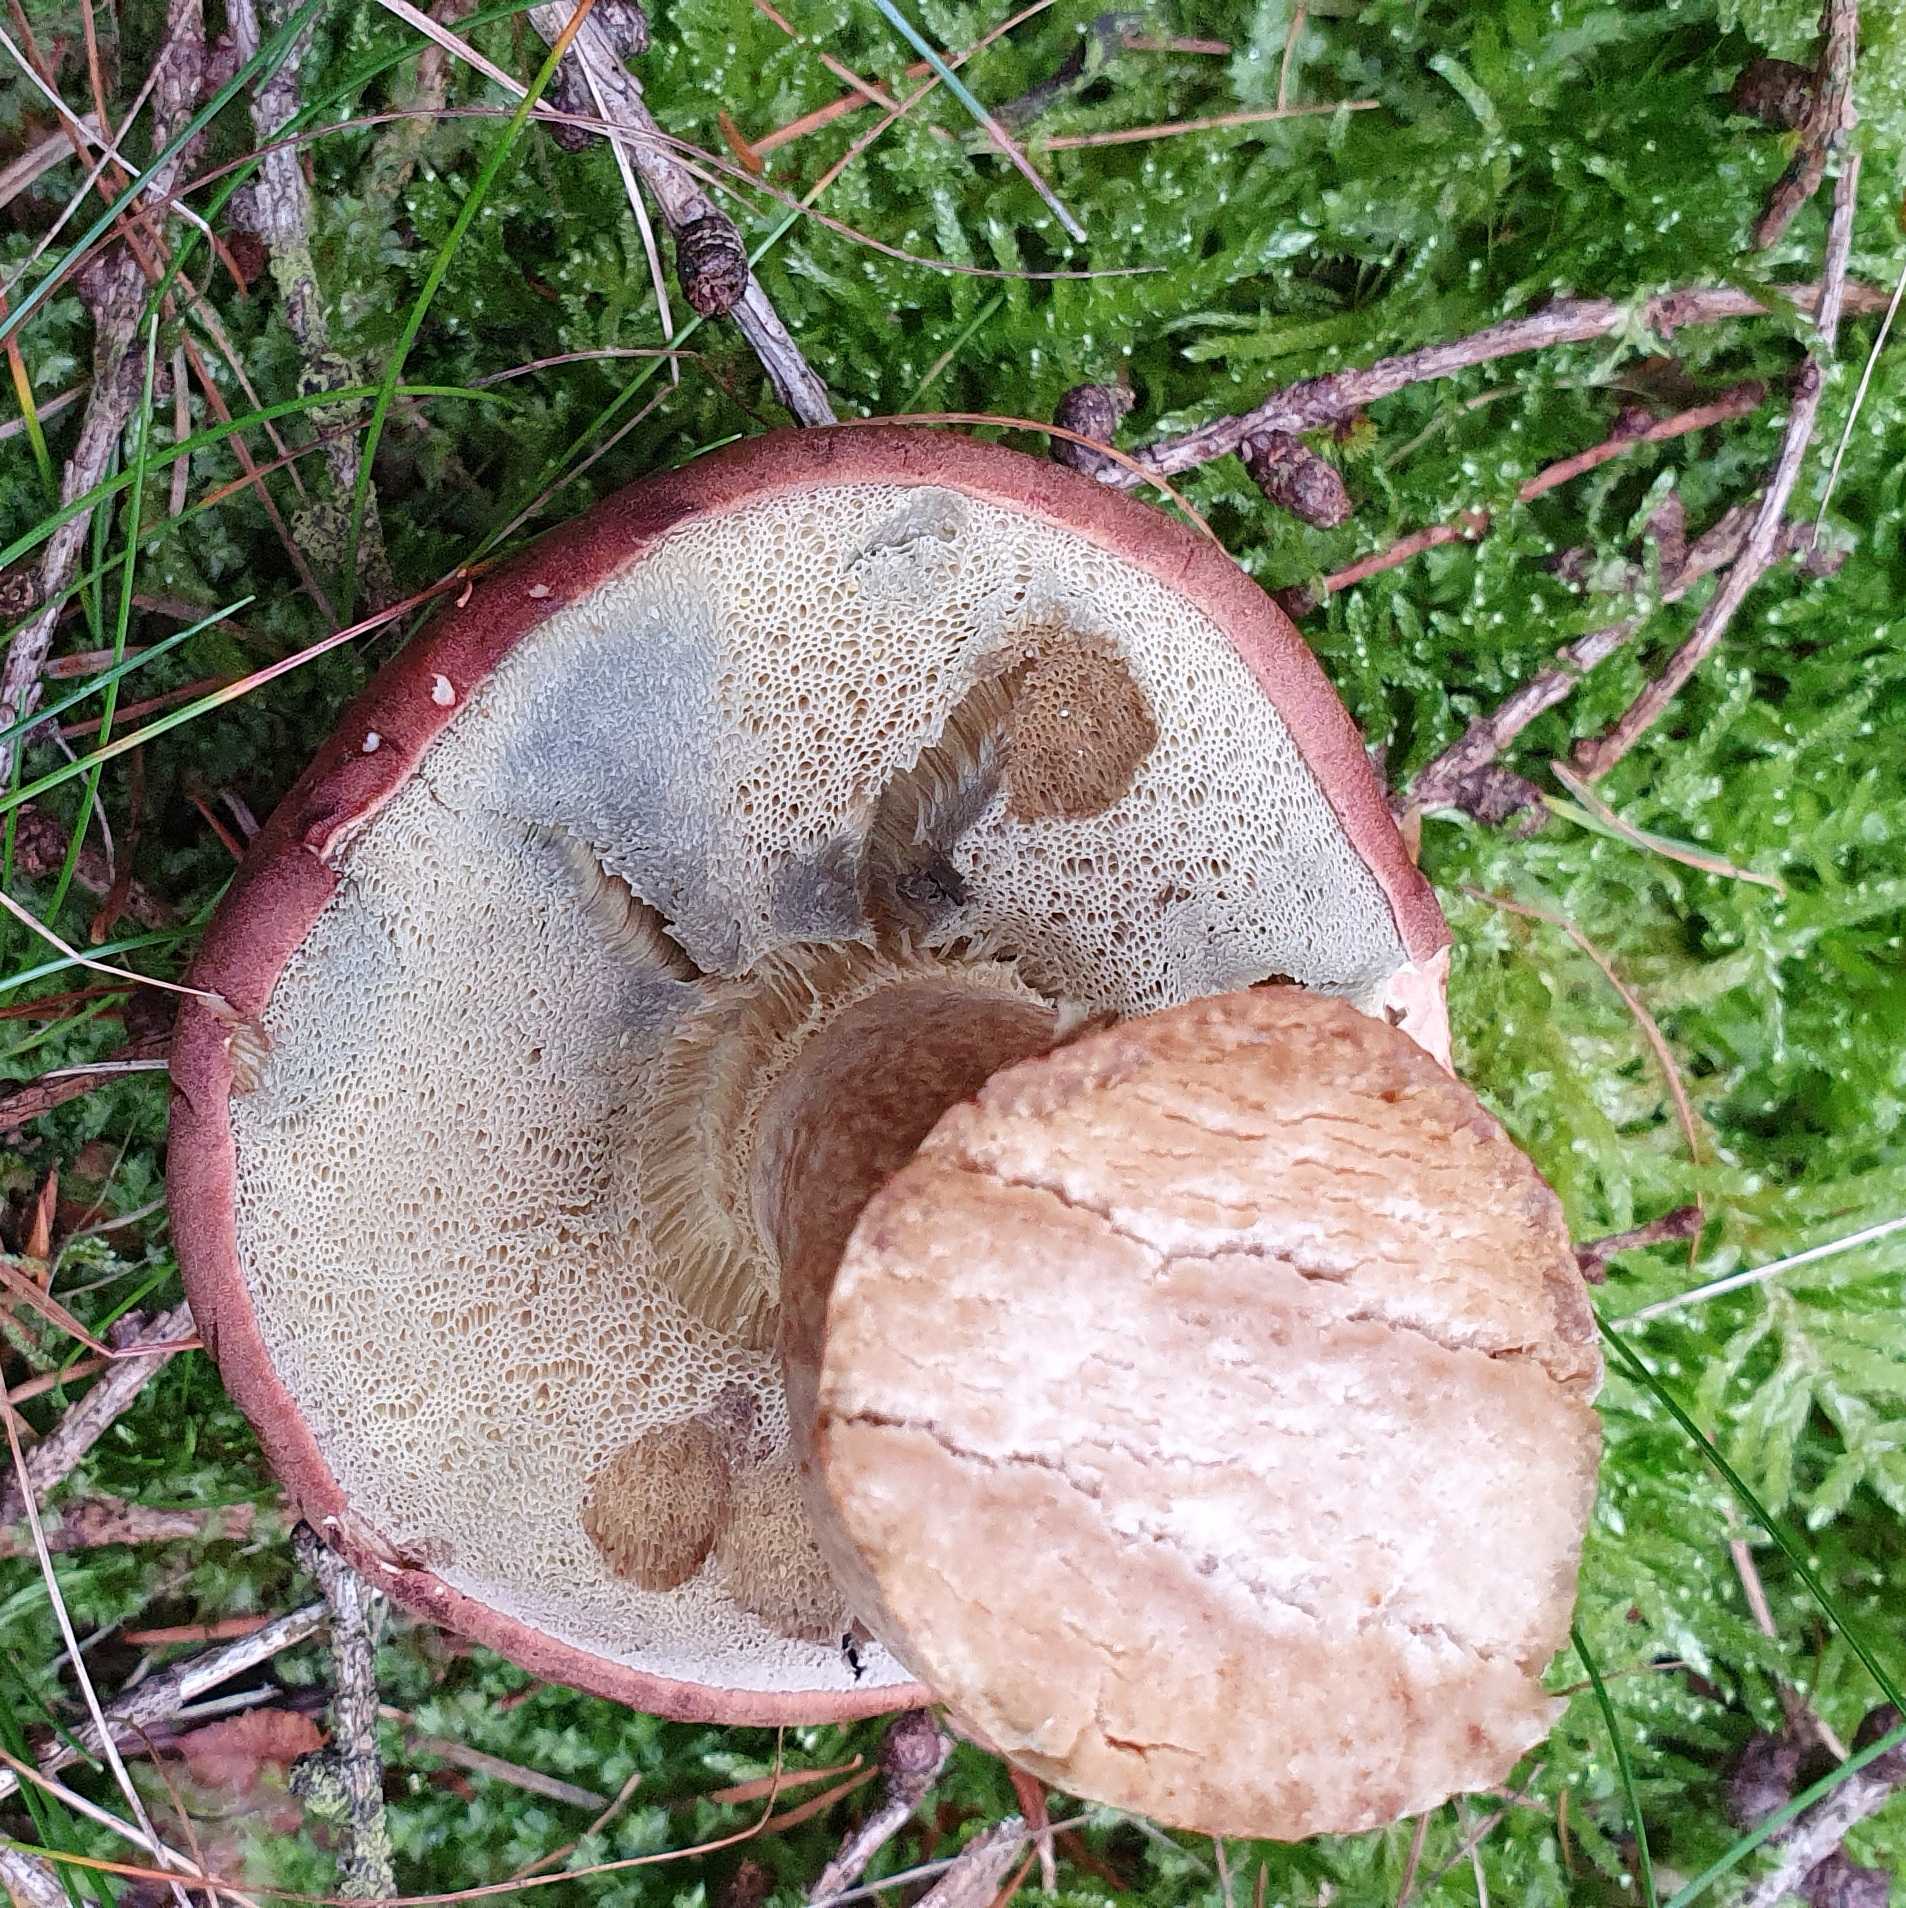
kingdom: Fungi
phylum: Basidiomycota
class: Agaricomycetes
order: Boletales
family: Boletaceae
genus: Imleria
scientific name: Imleria badia
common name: brunstokket rørhat
